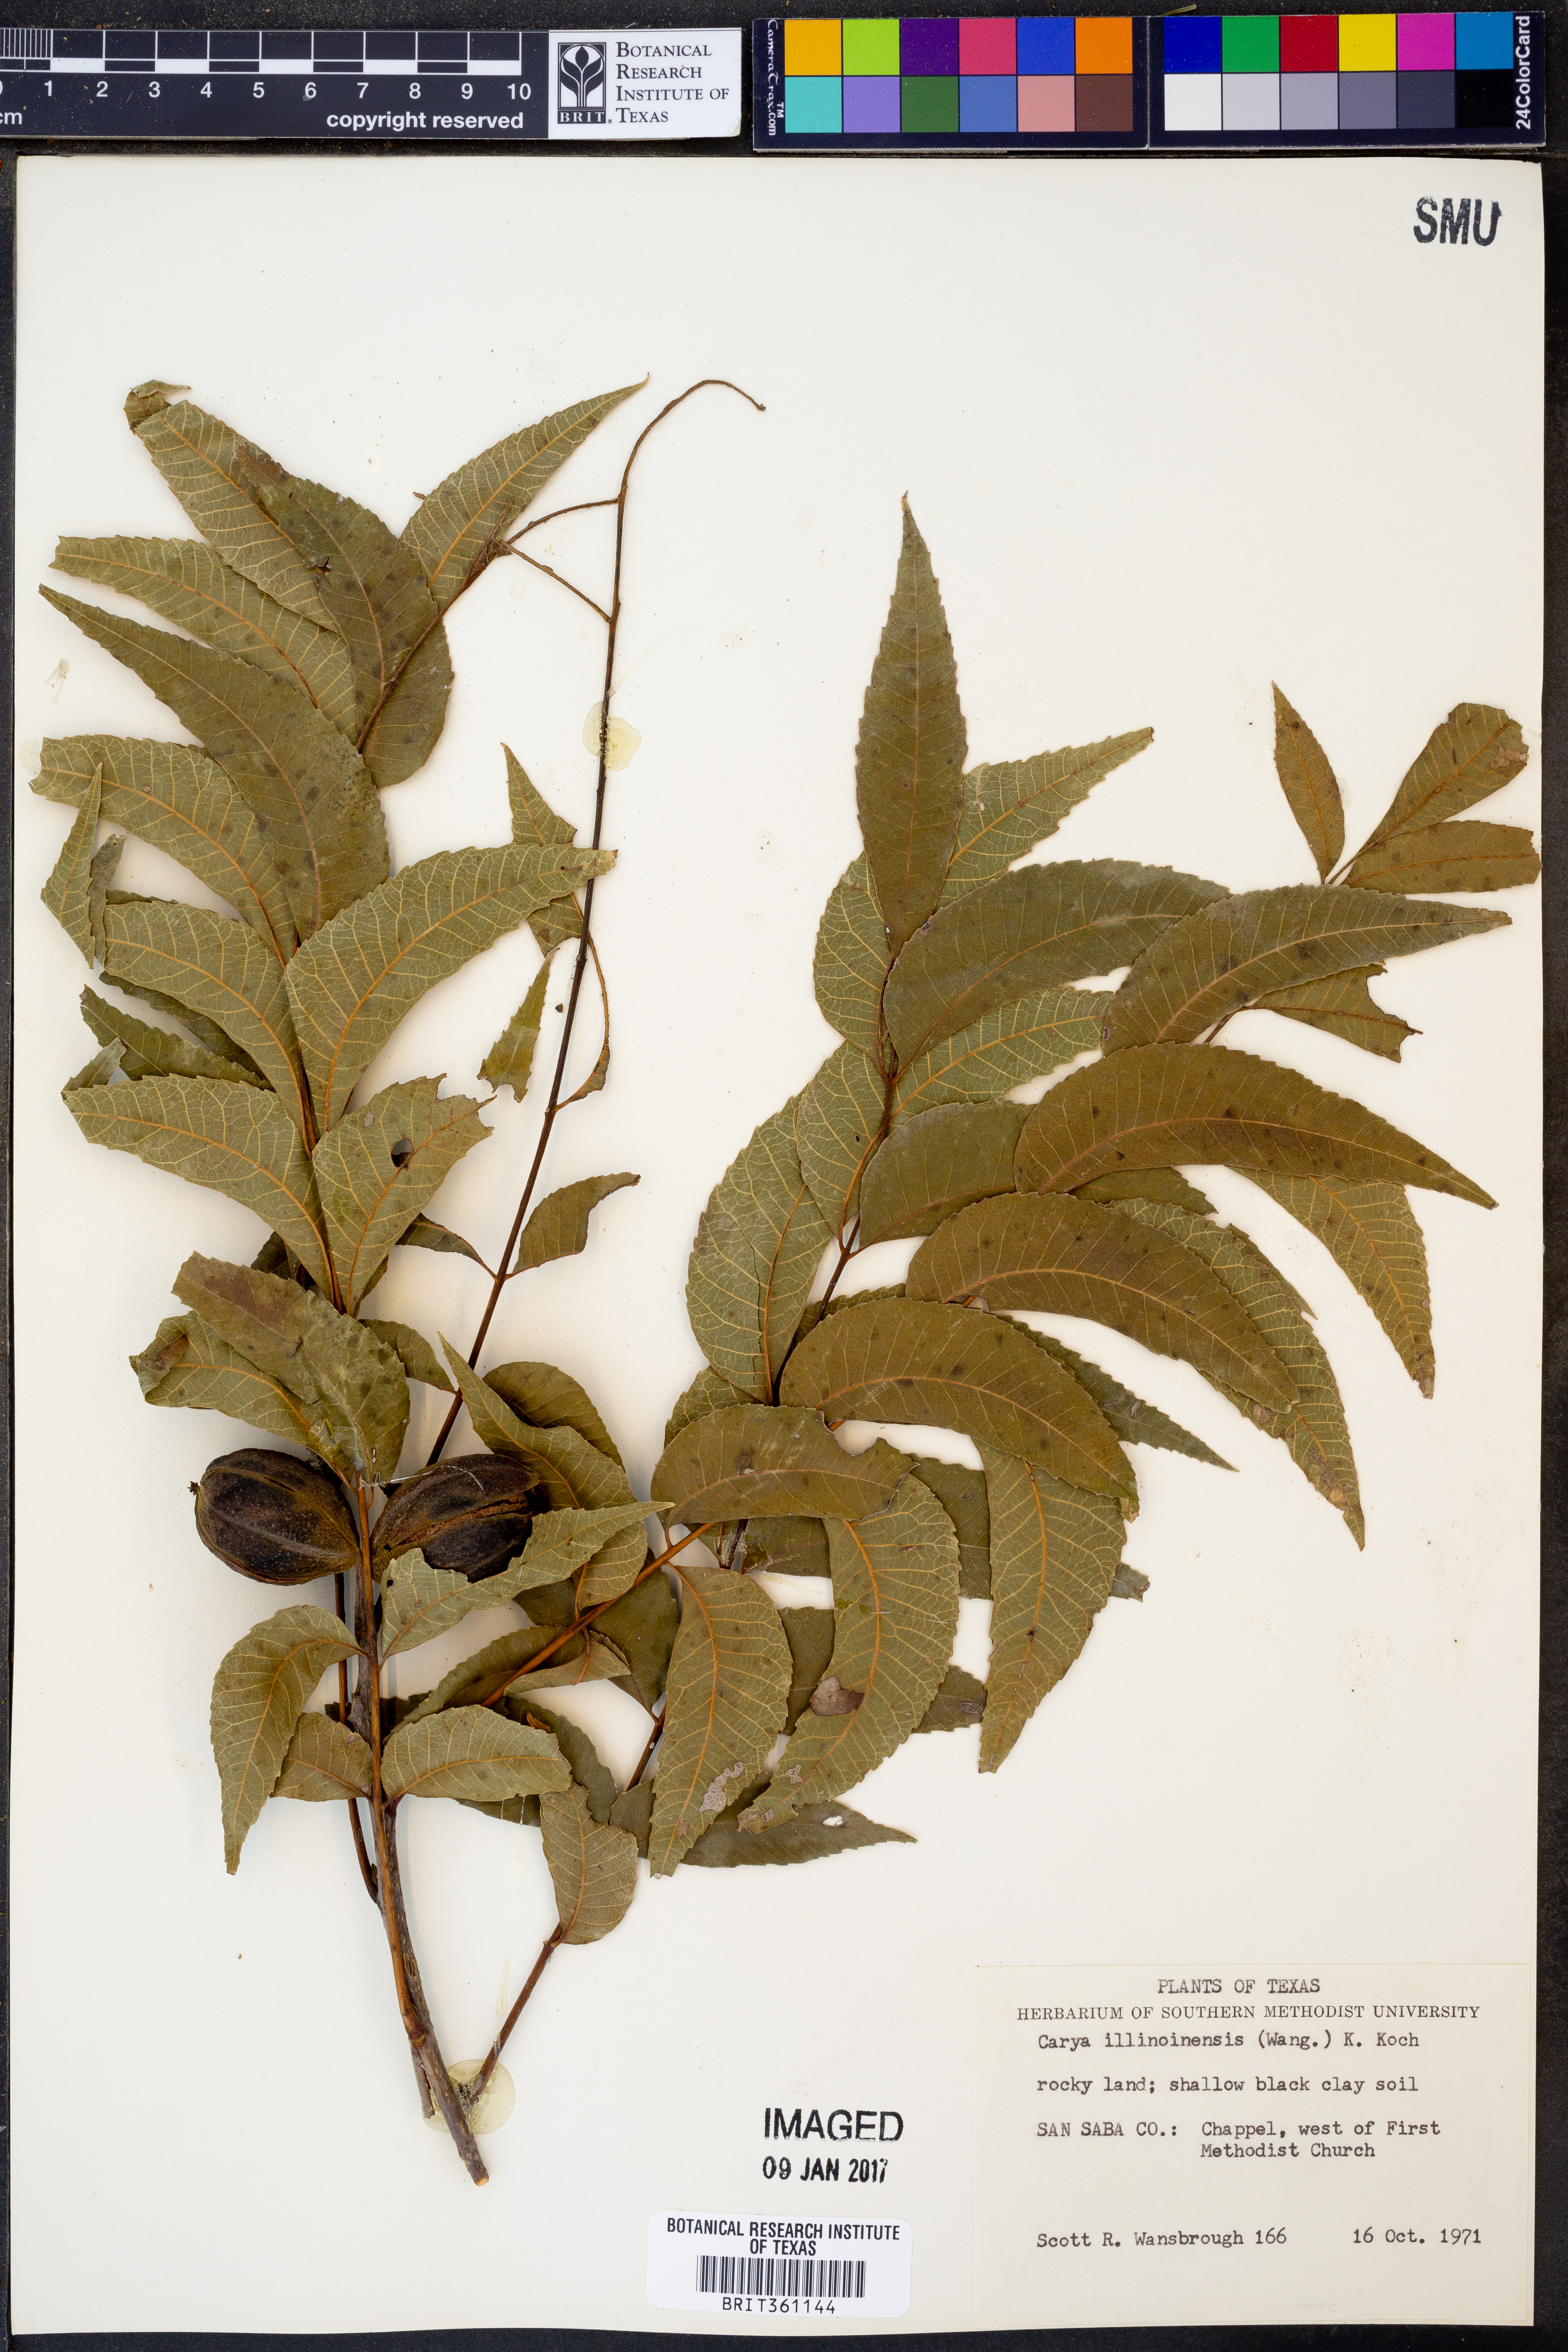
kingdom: Plantae
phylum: Tracheophyta
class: Magnoliopsida
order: Fagales
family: Juglandaceae
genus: Carya
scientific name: Carya illinoinensis
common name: Pecan
